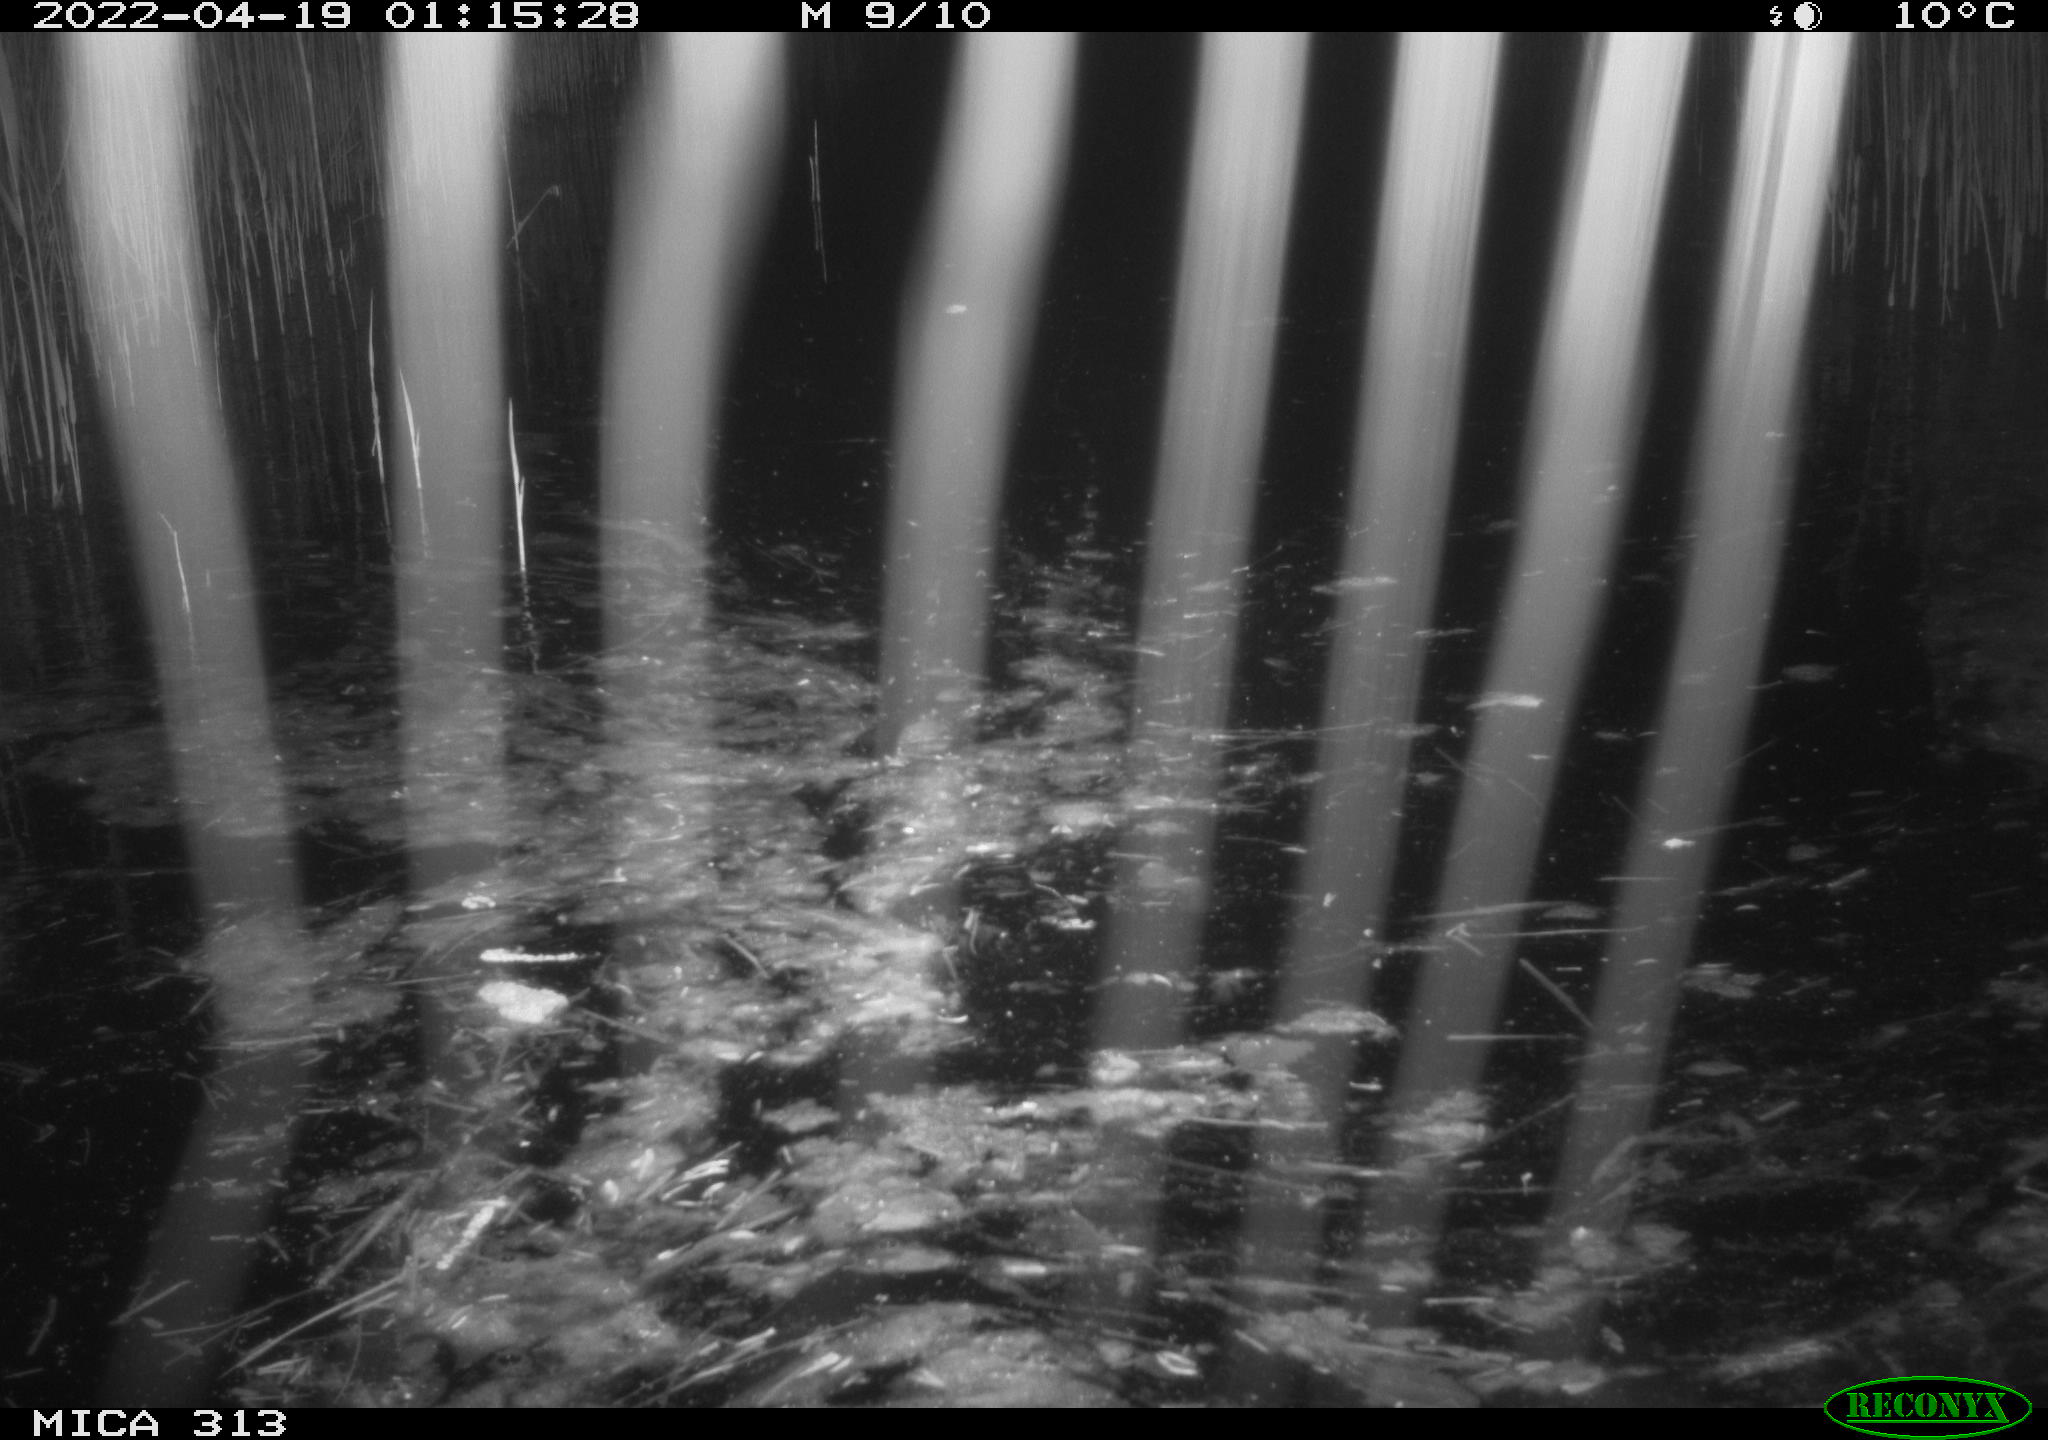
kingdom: Animalia
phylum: Chordata
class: Aves
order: Anseriformes
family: Anatidae
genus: Anas
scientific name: Anas platyrhynchos
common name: Mallard
